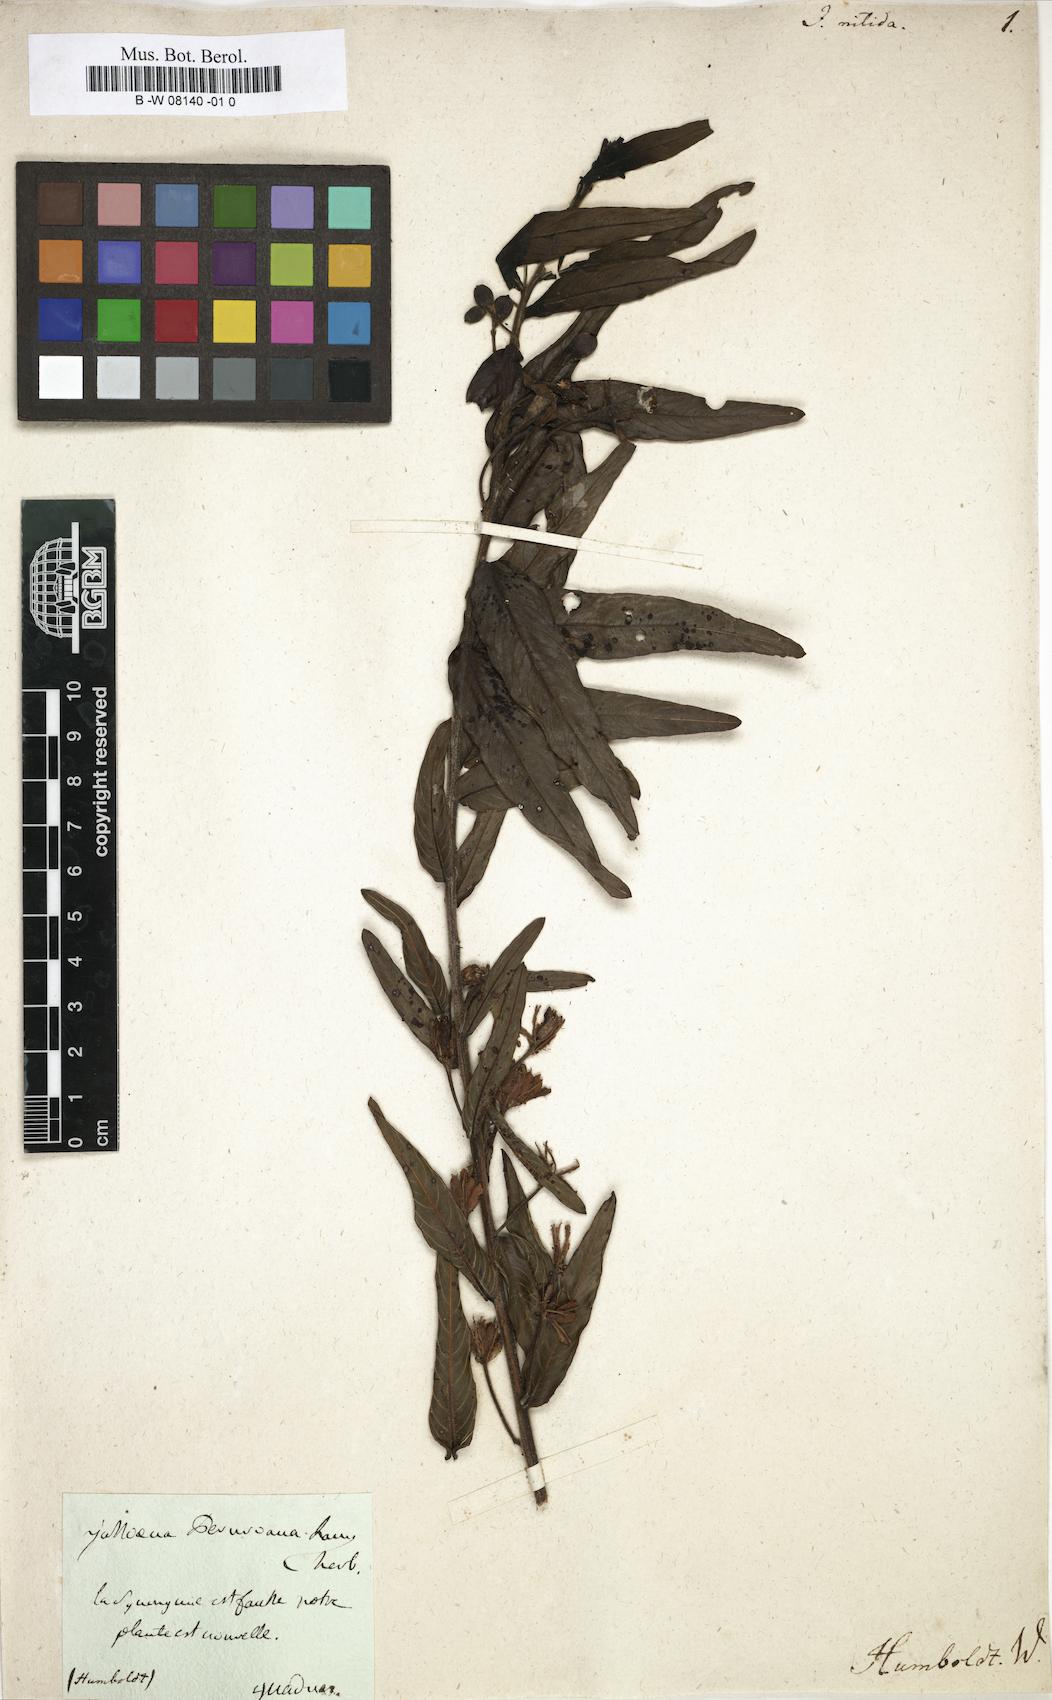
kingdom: Plantae
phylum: Tracheophyta
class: Magnoliopsida
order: Myrtales
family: Onagraceae
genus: Ludwigia
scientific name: Ludwigia
